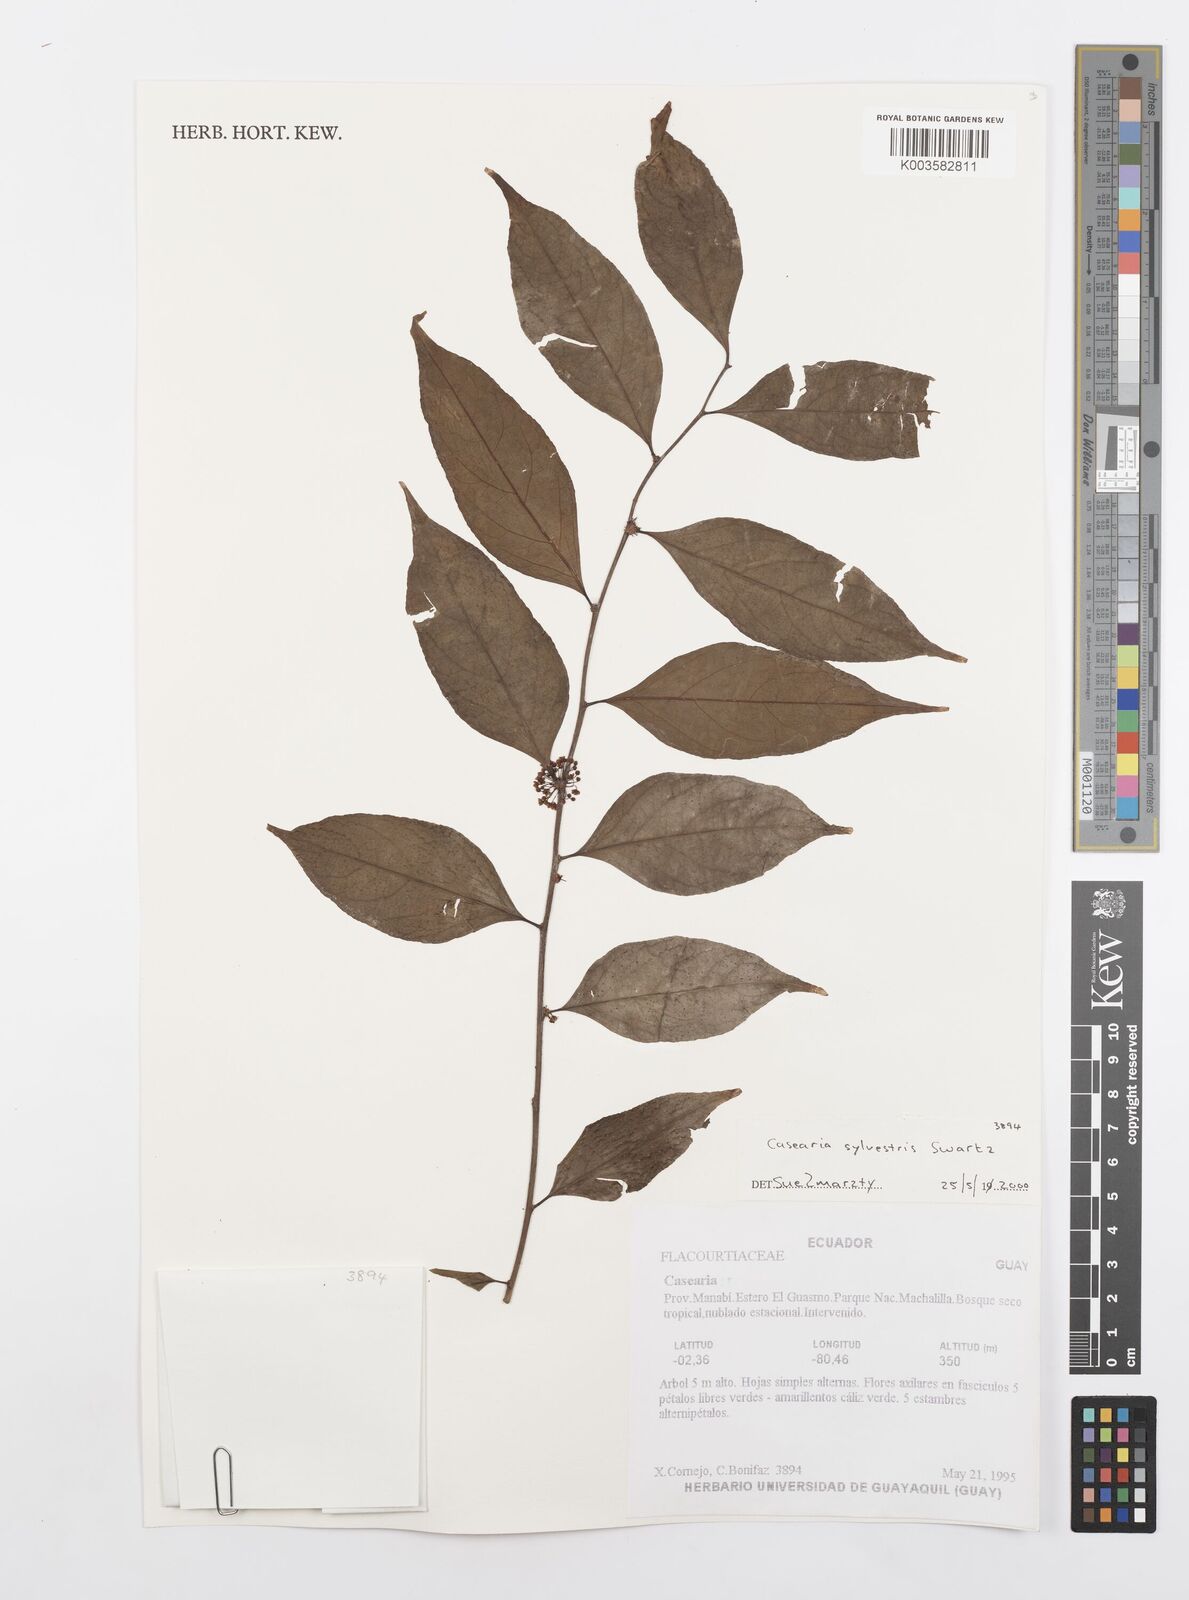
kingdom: Plantae
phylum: Tracheophyta
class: Magnoliopsida
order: Malpighiales
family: Salicaceae
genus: Casearia
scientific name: Casearia sylvestris
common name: Wild sage
